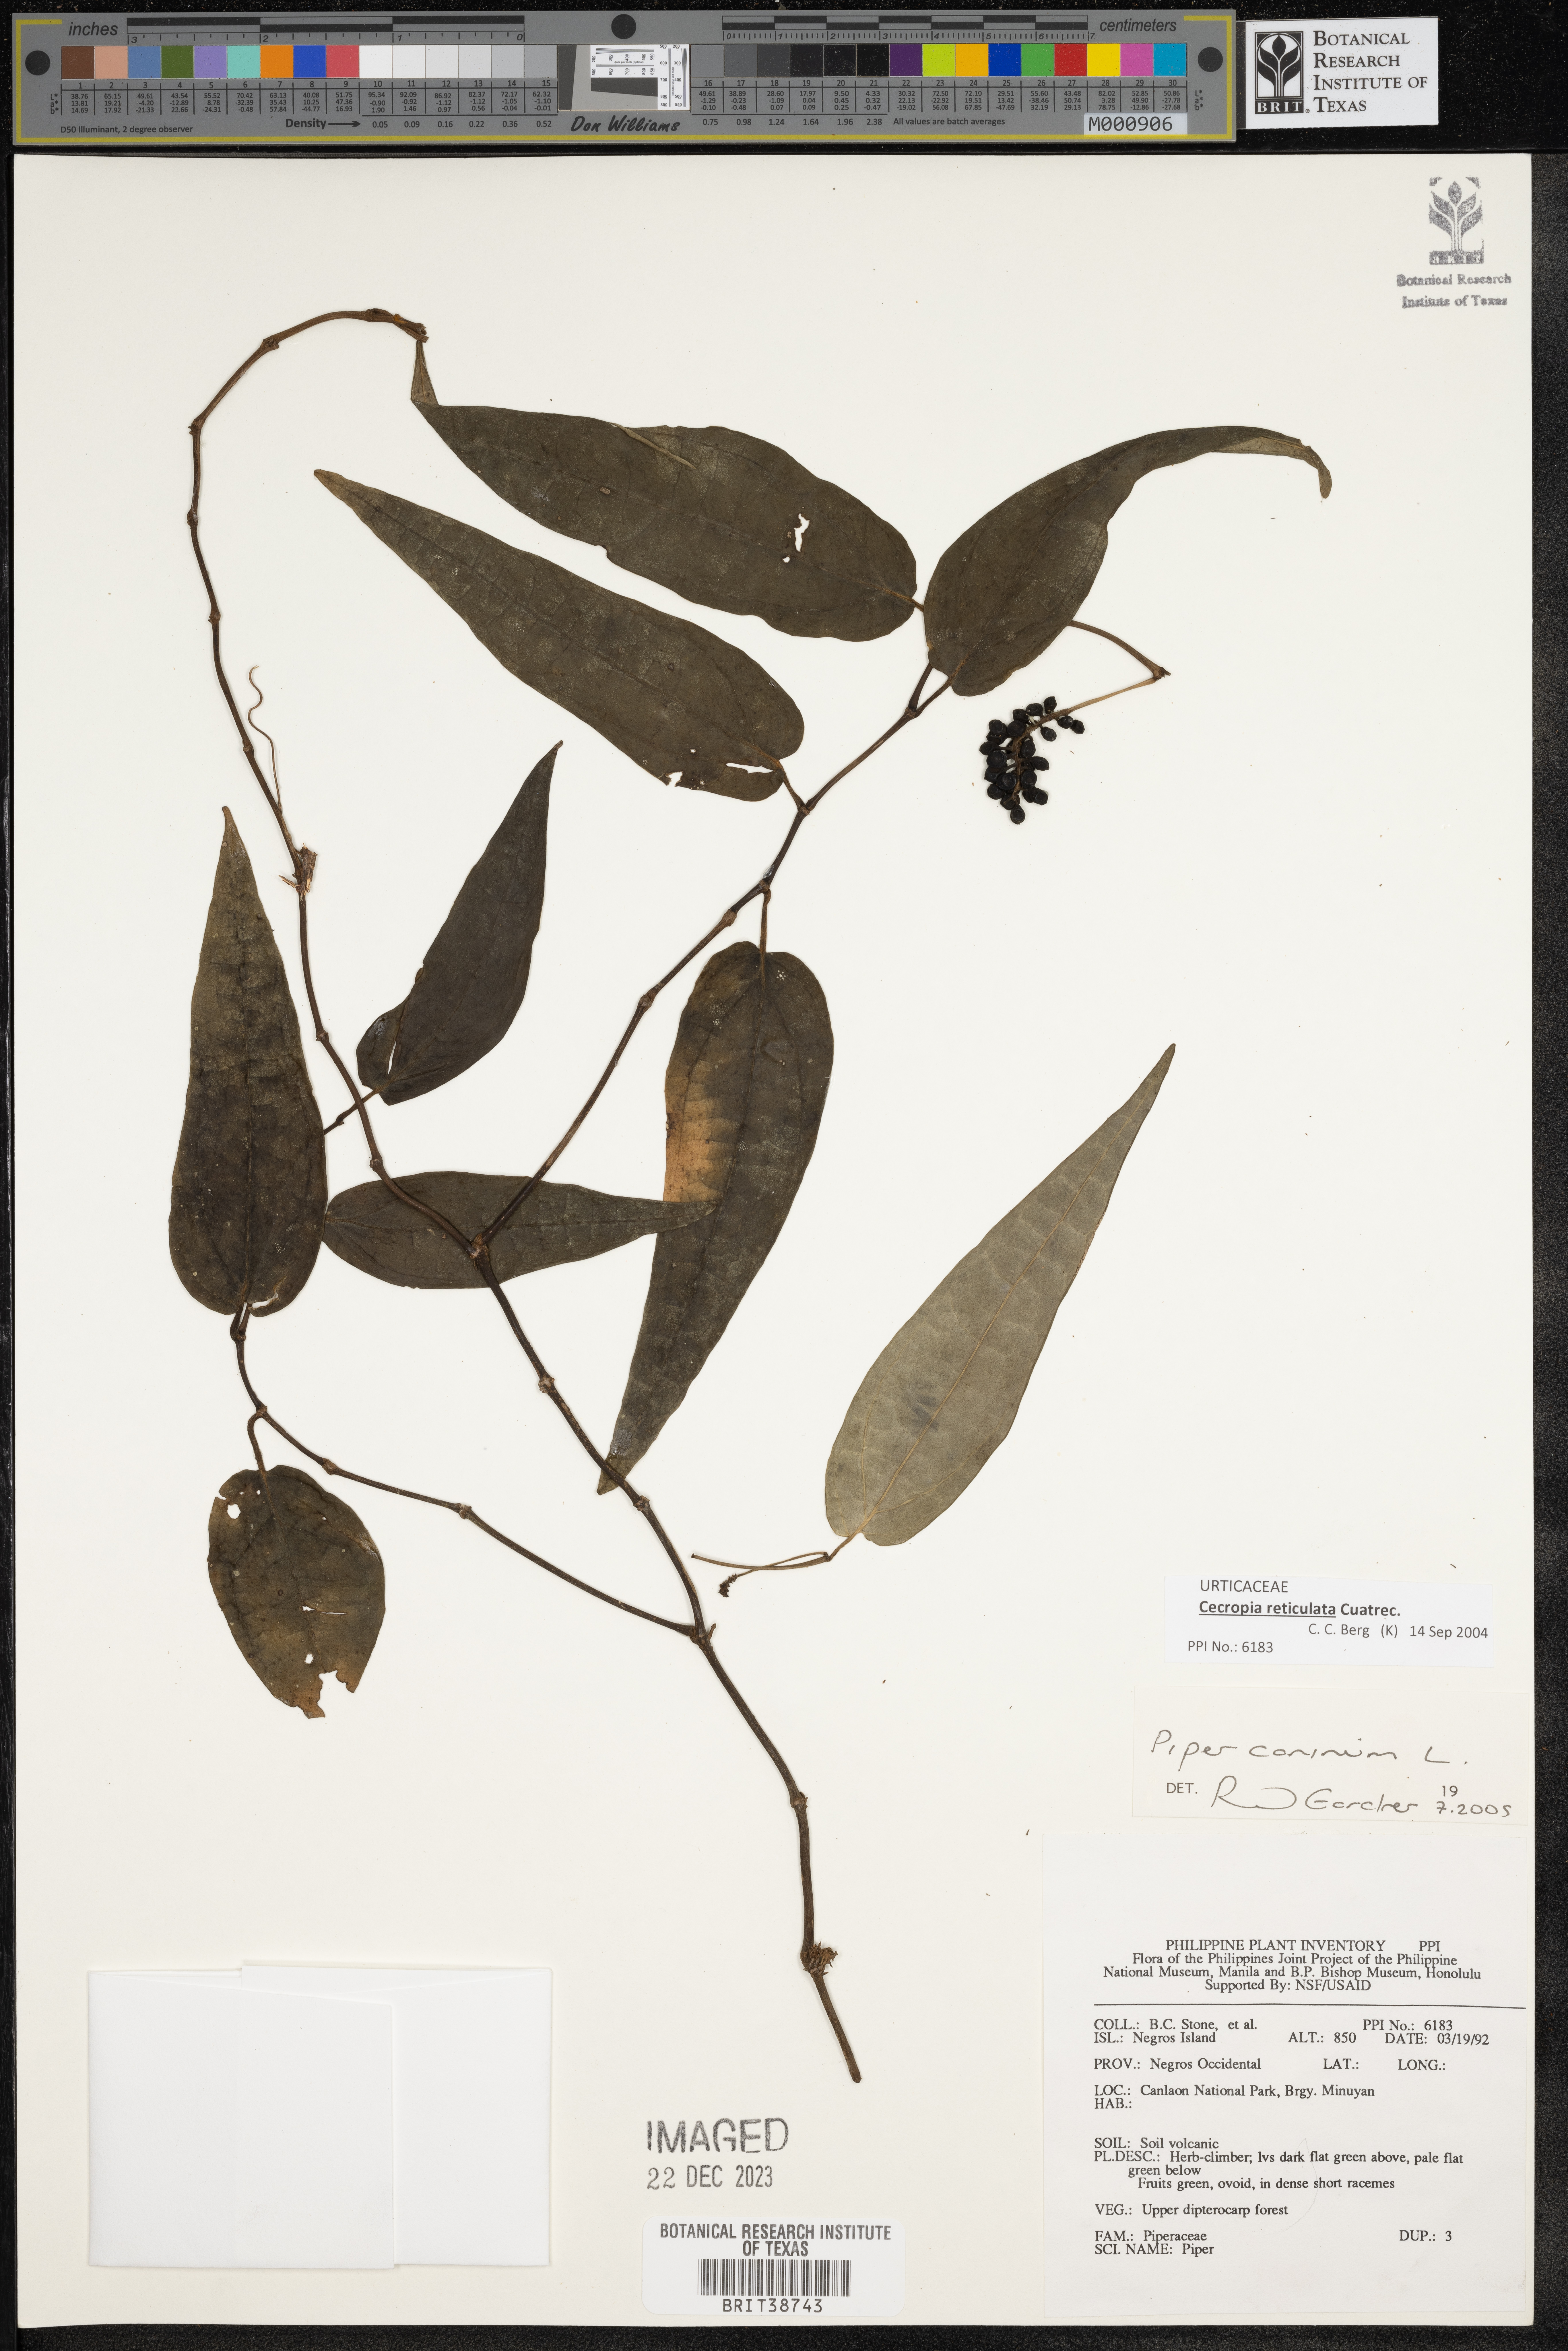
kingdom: Plantae
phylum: Tracheophyta
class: Magnoliopsida
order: Piperales
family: Piperaceae
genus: Piper
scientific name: Piper lanatum
